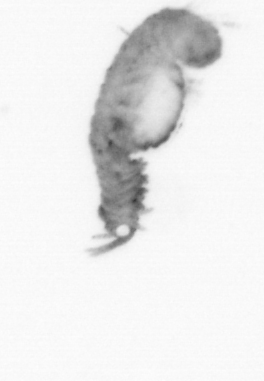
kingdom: Animalia
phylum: Annelida
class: Polychaeta
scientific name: Polychaeta
